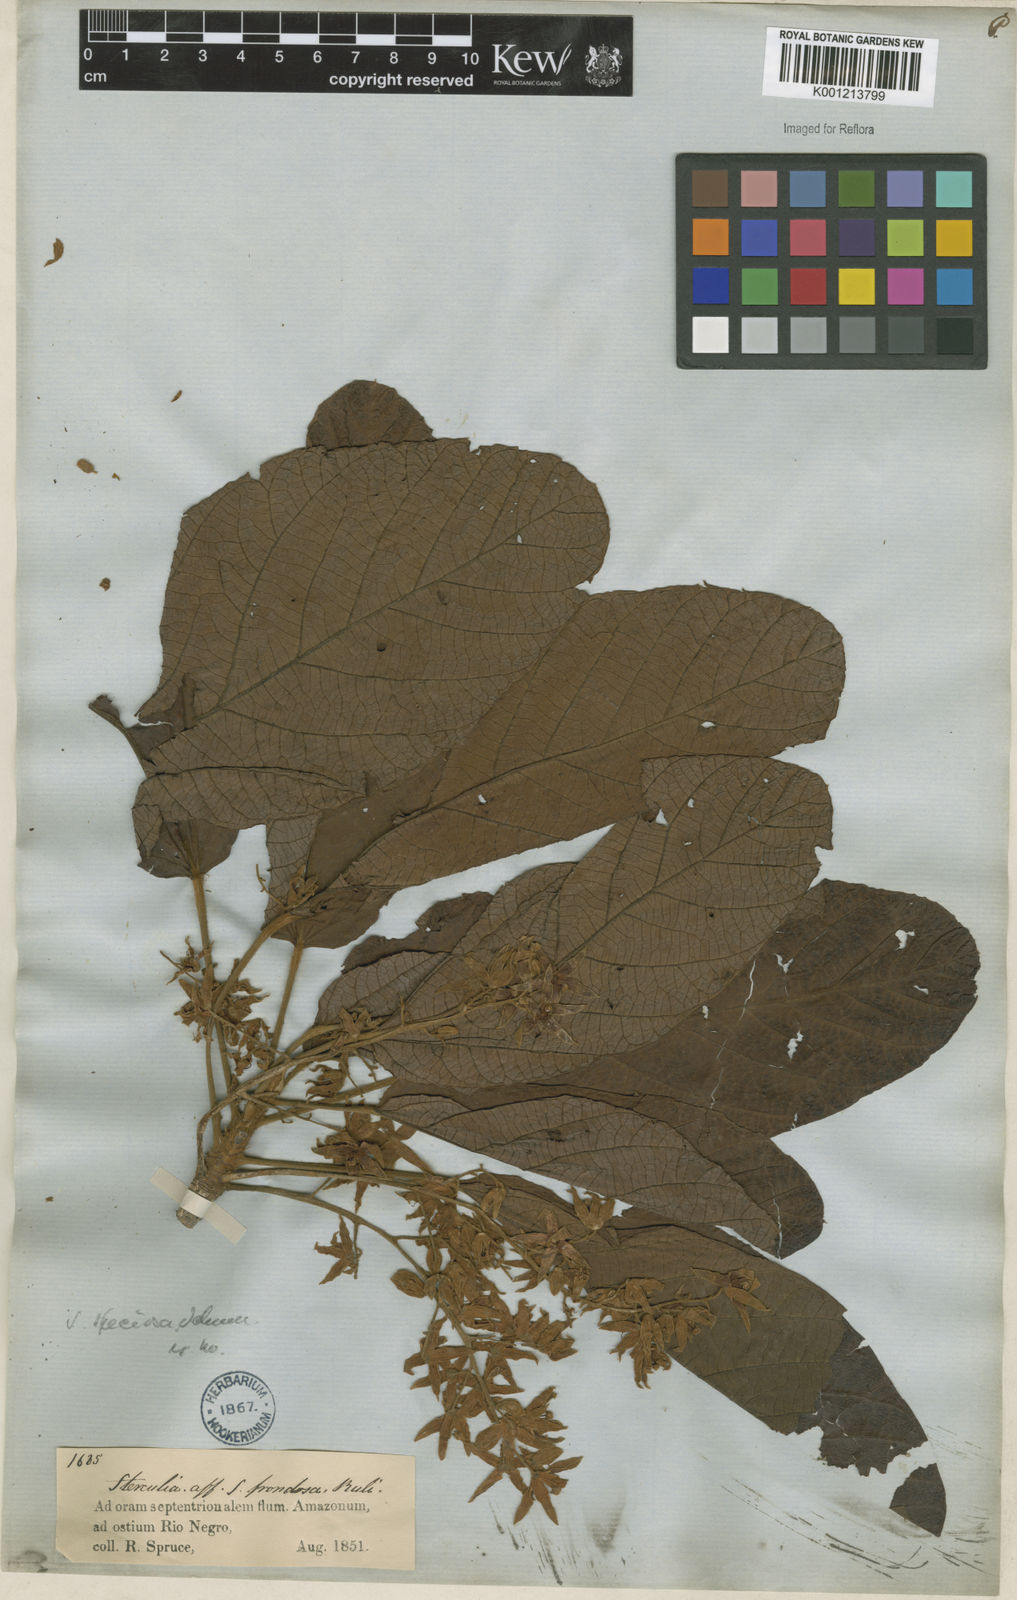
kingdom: Plantae
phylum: Tracheophyta
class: Magnoliopsida
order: Malvales
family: Malvaceae
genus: Sterculia
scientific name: Sterculia speciosa
